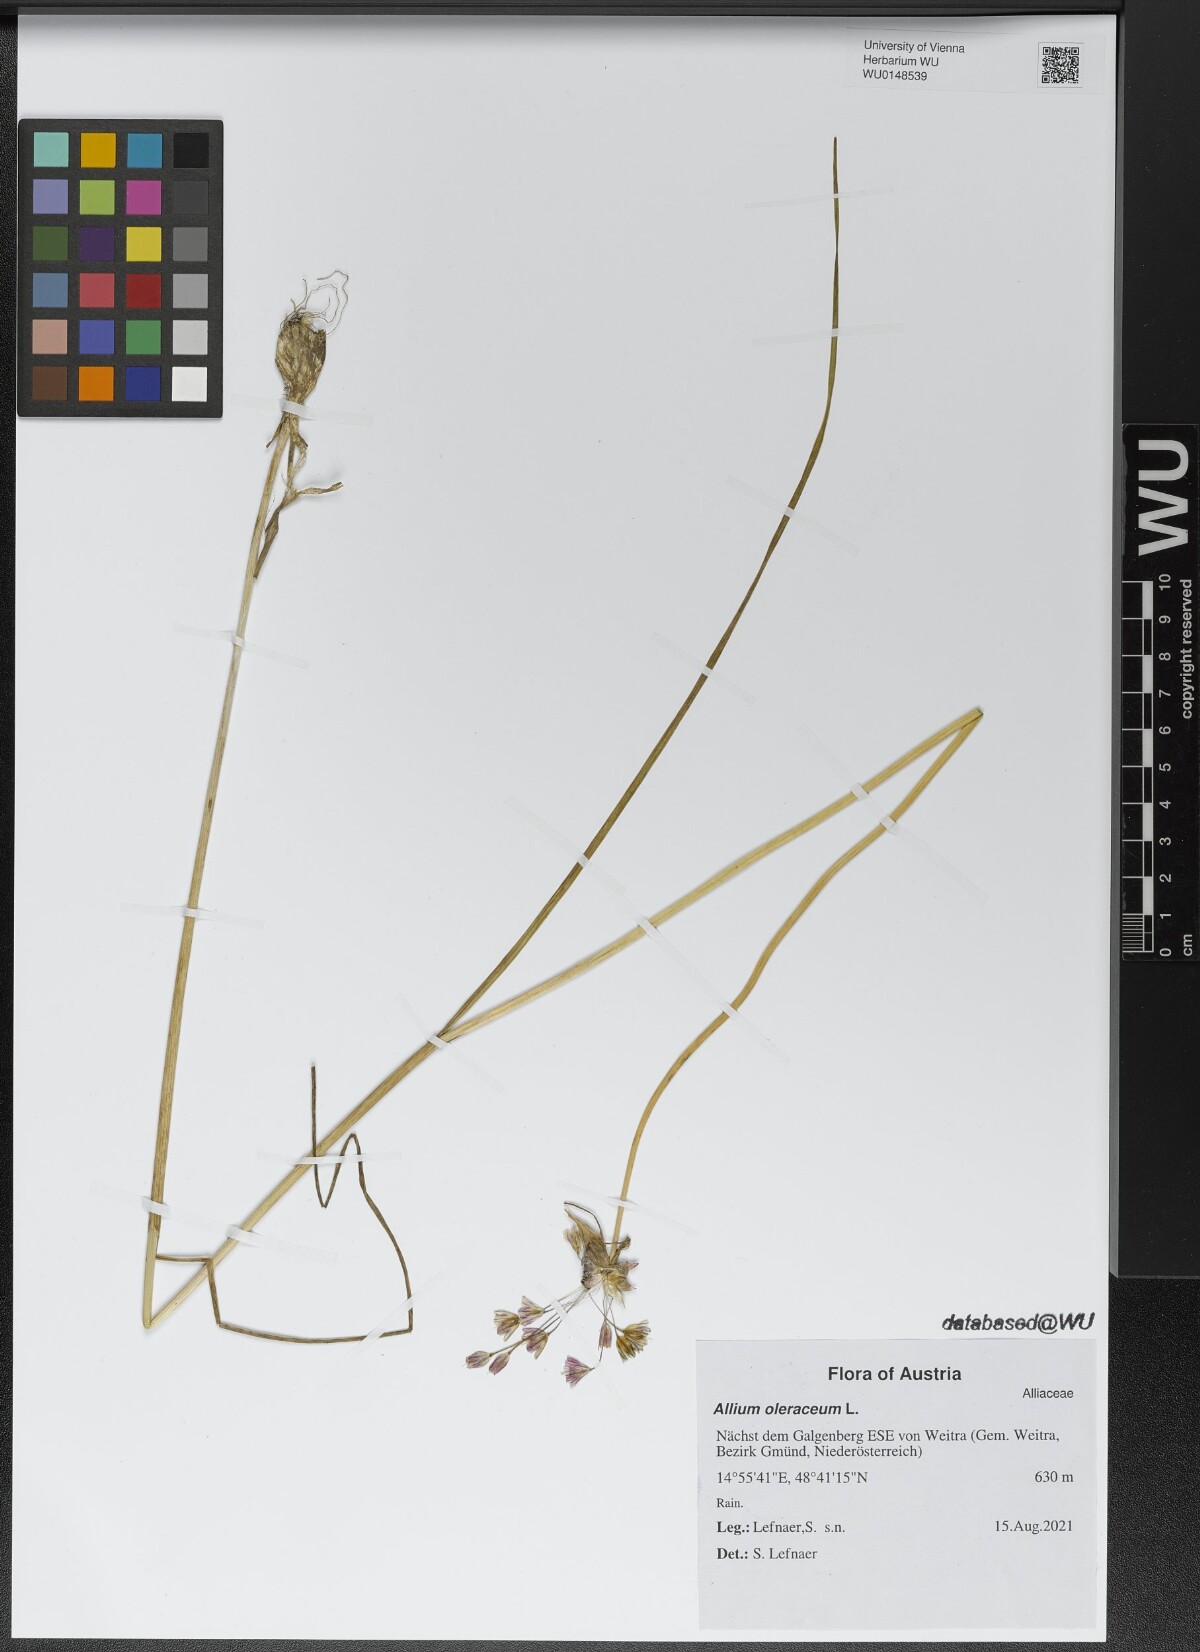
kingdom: Plantae
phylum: Tracheophyta
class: Liliopsida
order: Asparagales
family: Amaryllidaceae
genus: Allium
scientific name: Allium oleraceum
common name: Field garlic
